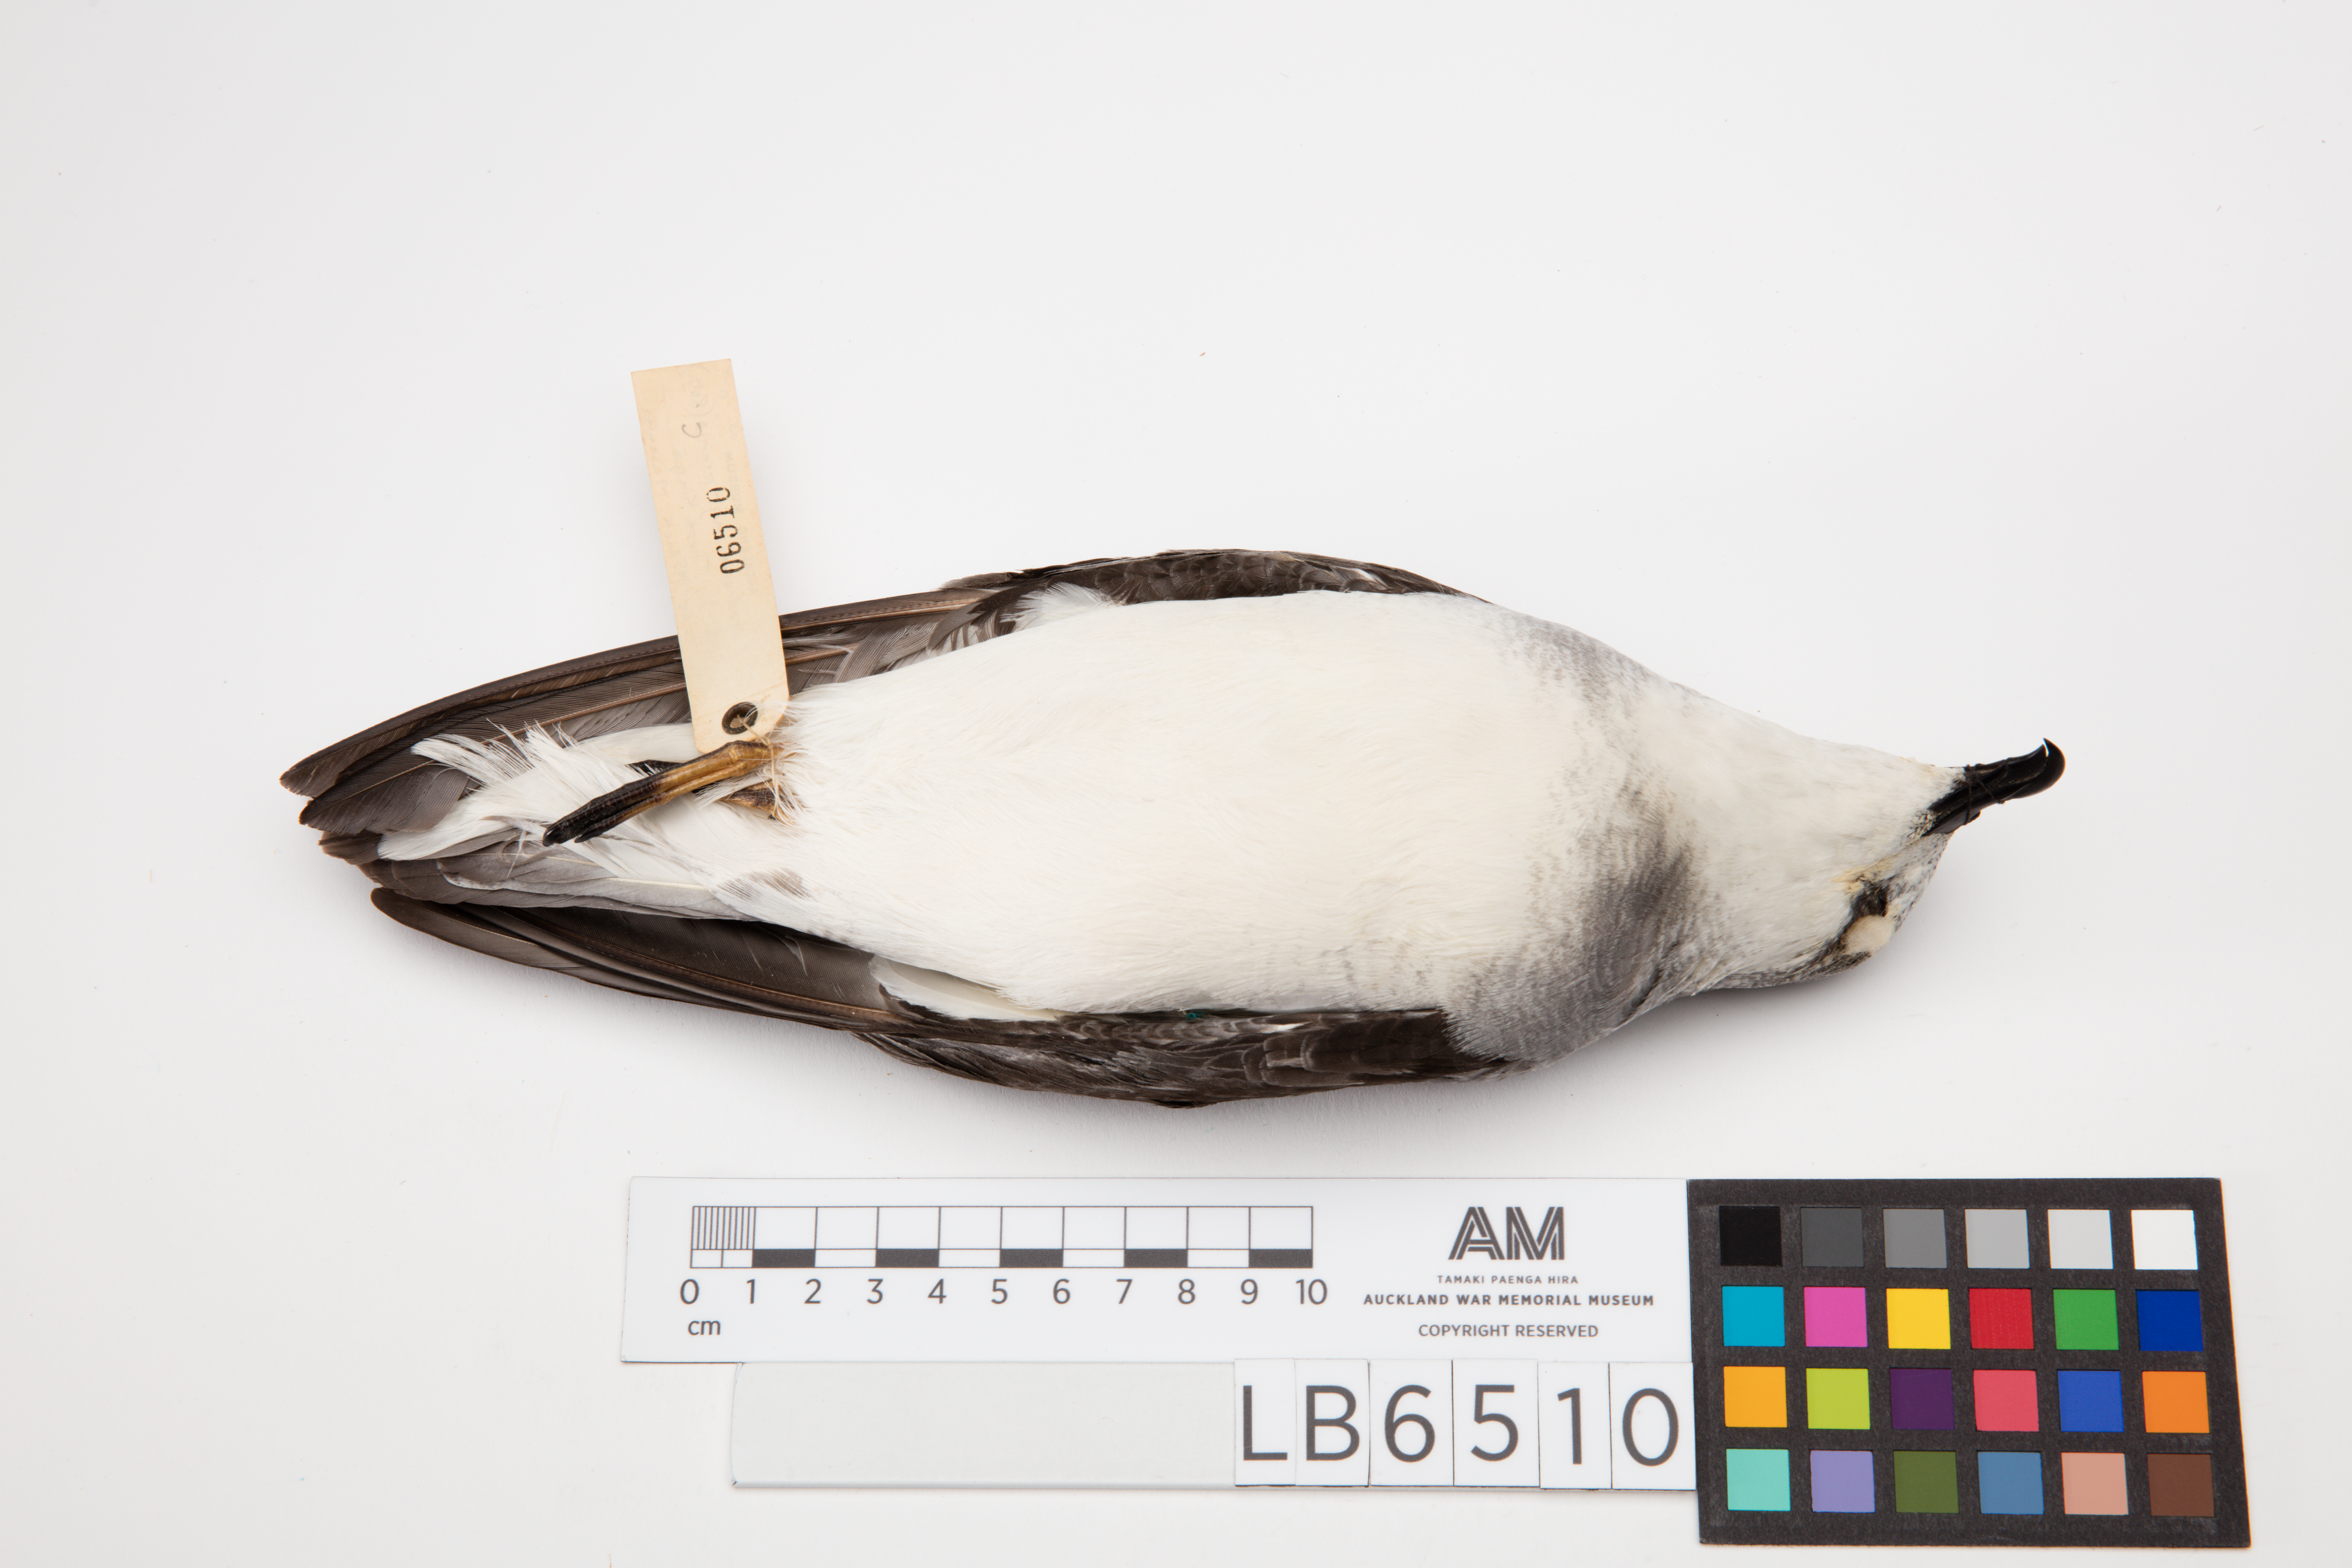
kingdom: Animalia
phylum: Chordata
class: Aves
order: Procellariiformes
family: Procellariidae
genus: Pterodroma
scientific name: Pterodroma nigripennis
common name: Black-winged petrel
